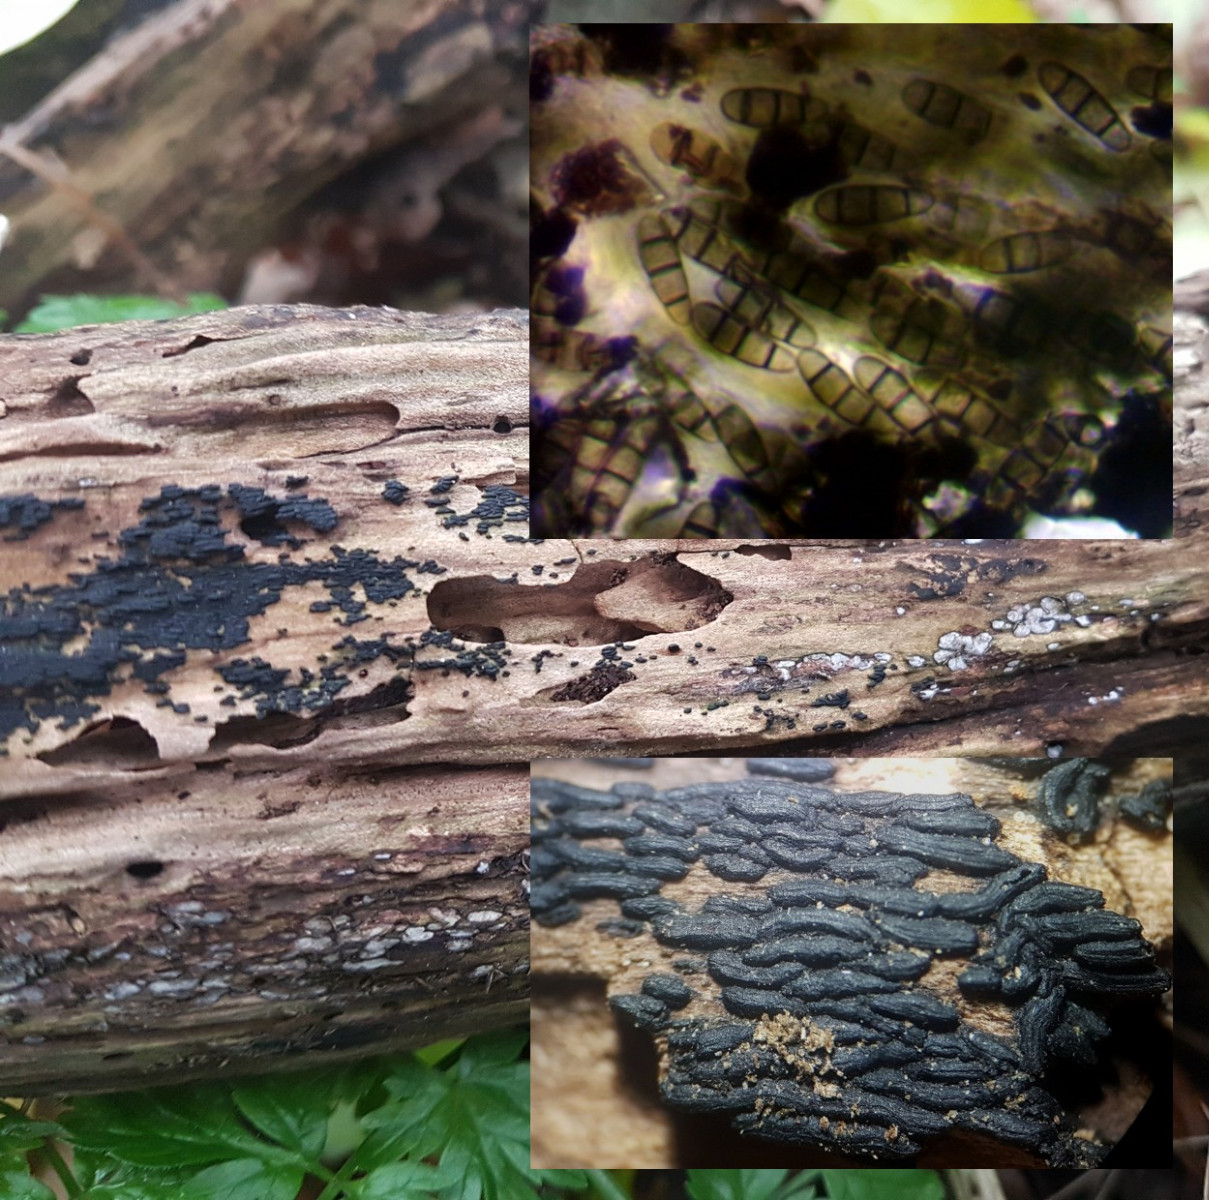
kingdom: Fungi
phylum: Ascomycota
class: Dothideomycetes
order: Hysteriales
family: Hysteriaceae
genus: Hysterium
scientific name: Hysterium acuminatum
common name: almindelig kulmund
